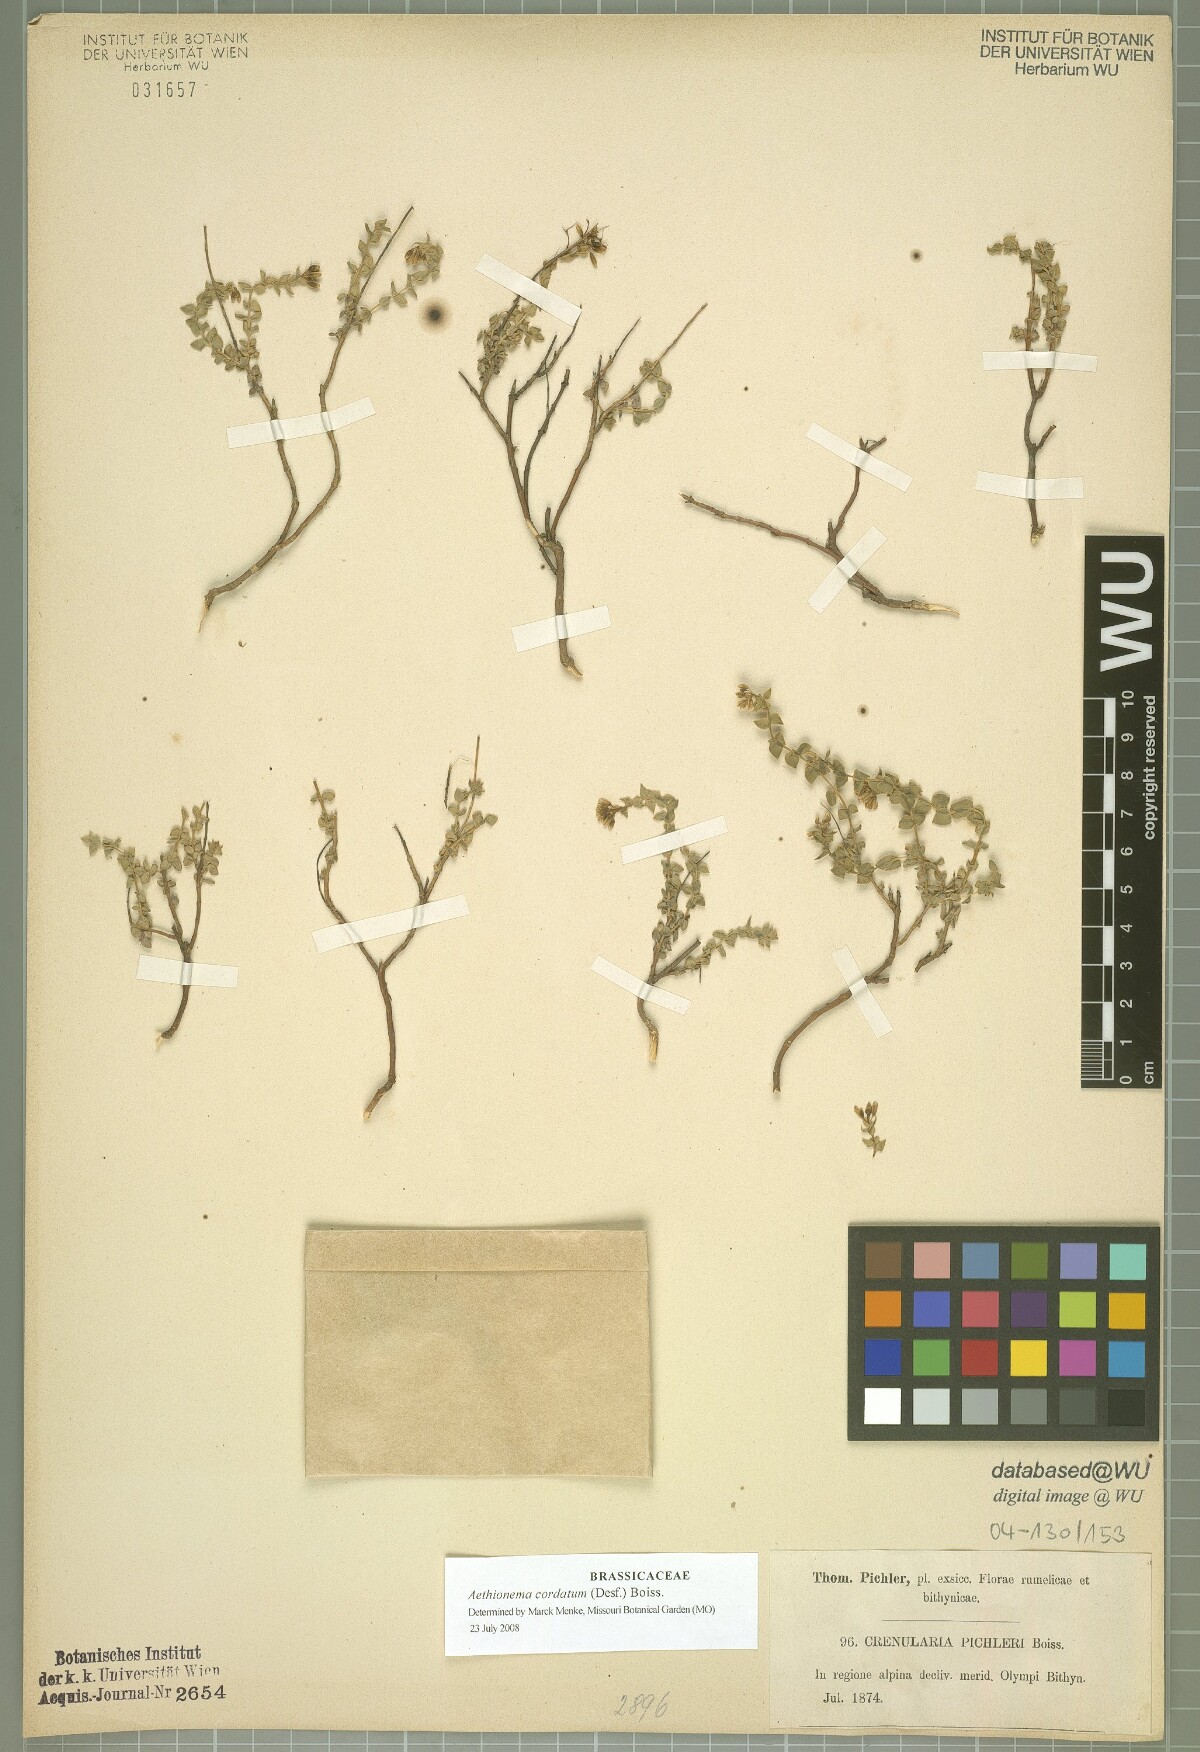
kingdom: Plantae
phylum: Tracheophyta
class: Magnoliopsida
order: Brassicales
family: Brassicaceae
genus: Aethionema
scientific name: Aethionema cordatum
